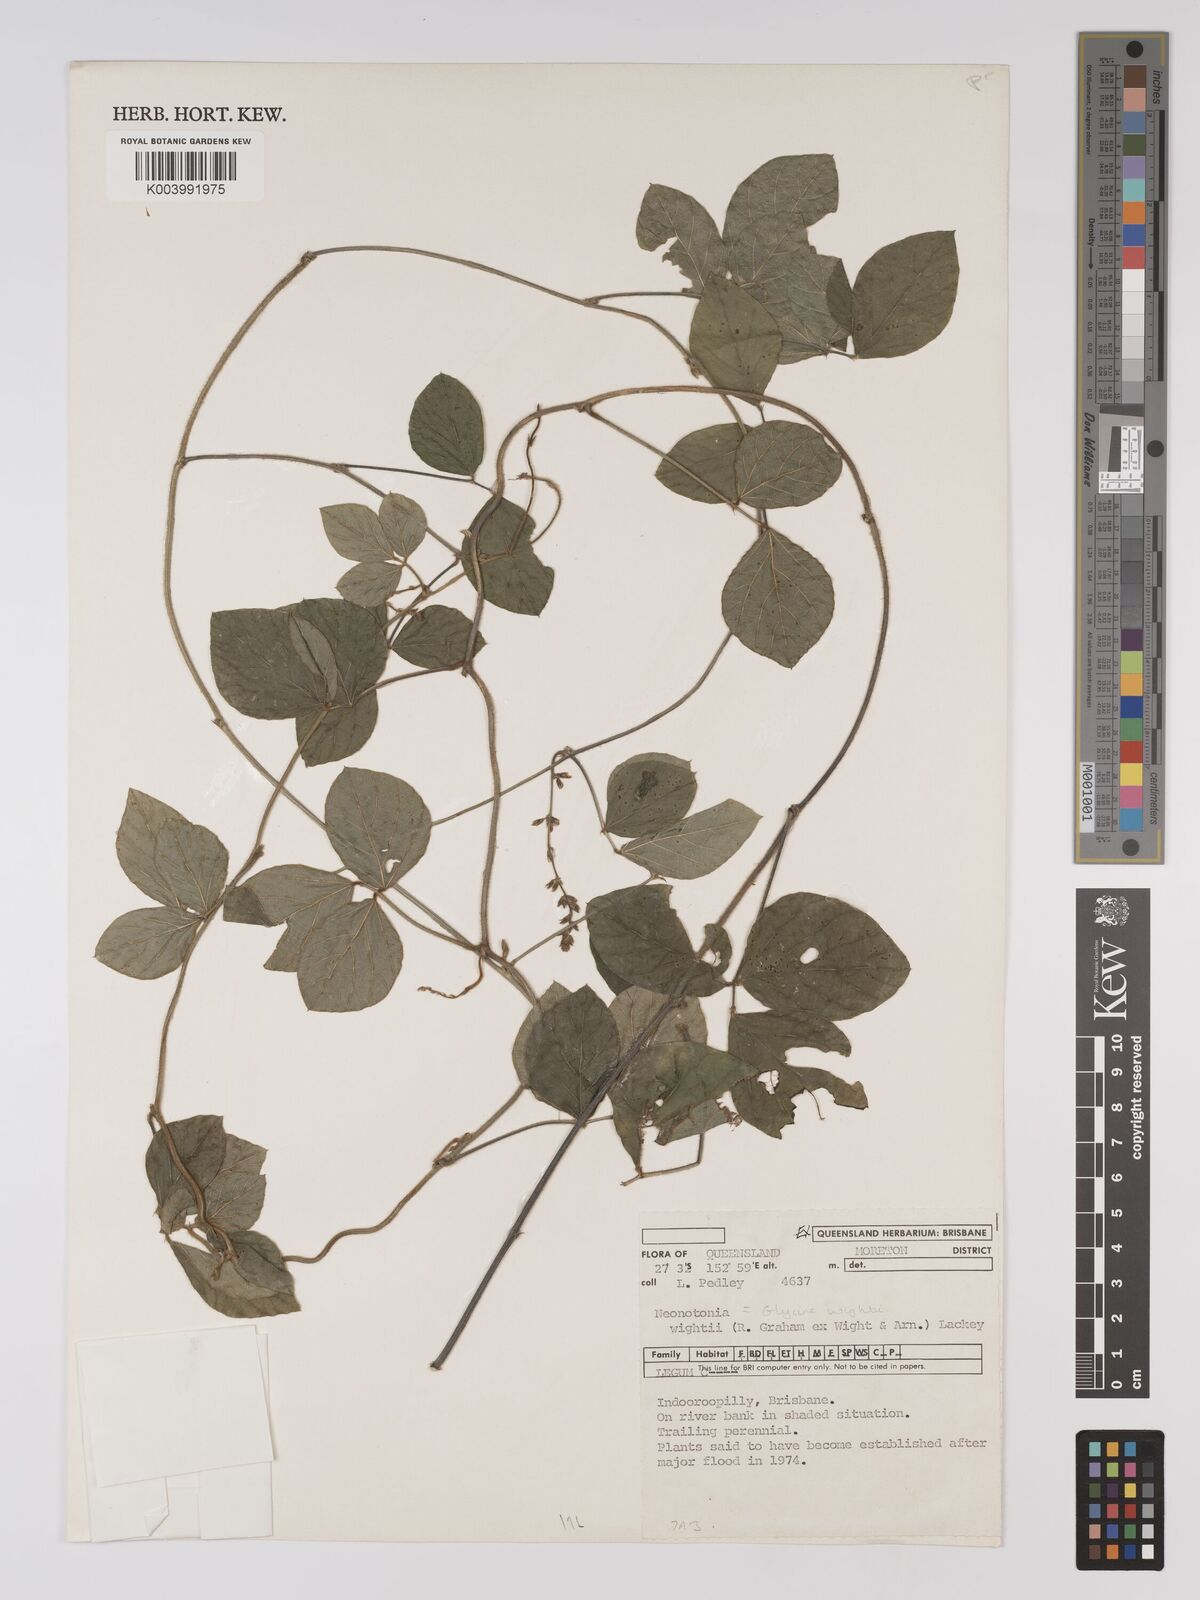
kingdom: Plantae
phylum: Tracheophyta
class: Magnoliopsida
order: Fabales
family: Fabaceae
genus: Neonotonia
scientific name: Neonotonia wightii
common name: Perennial soybean
